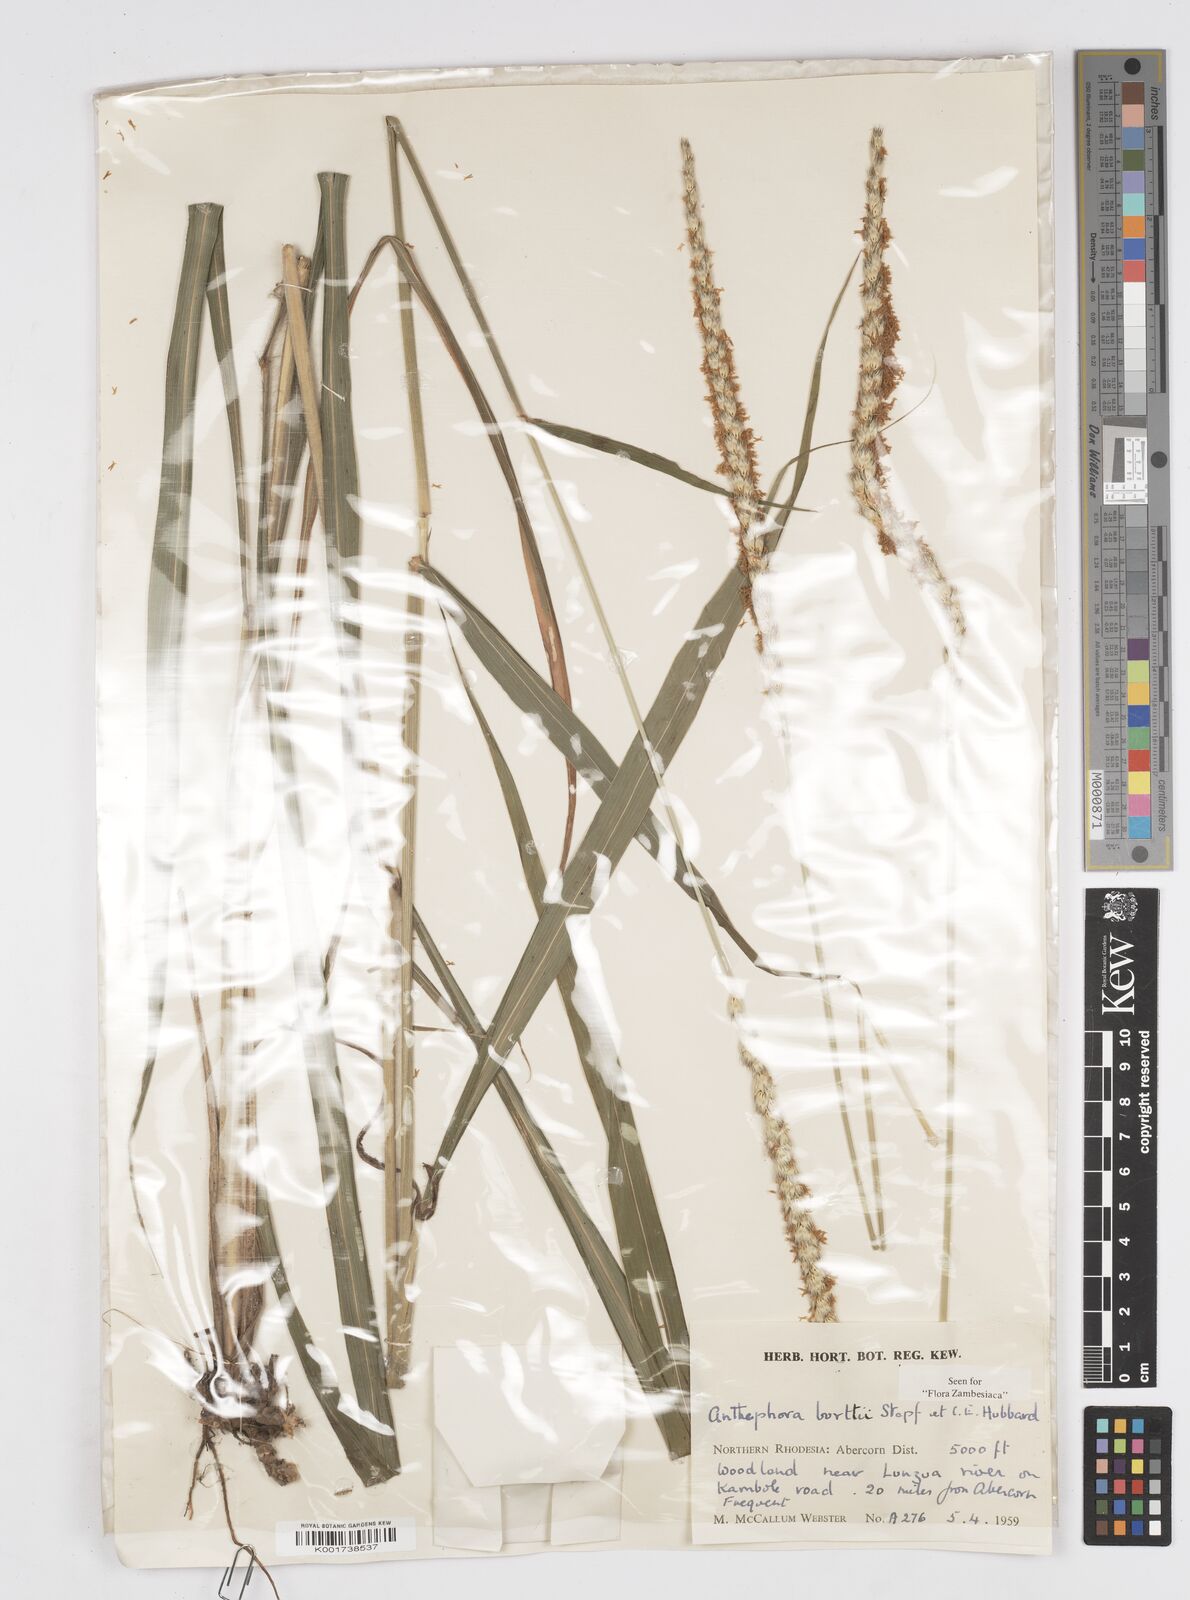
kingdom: Plantae
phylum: Tracheophyta
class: Liliopsida
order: Poales
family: Poaceae
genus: Anthephora
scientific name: Anthephora elongata
